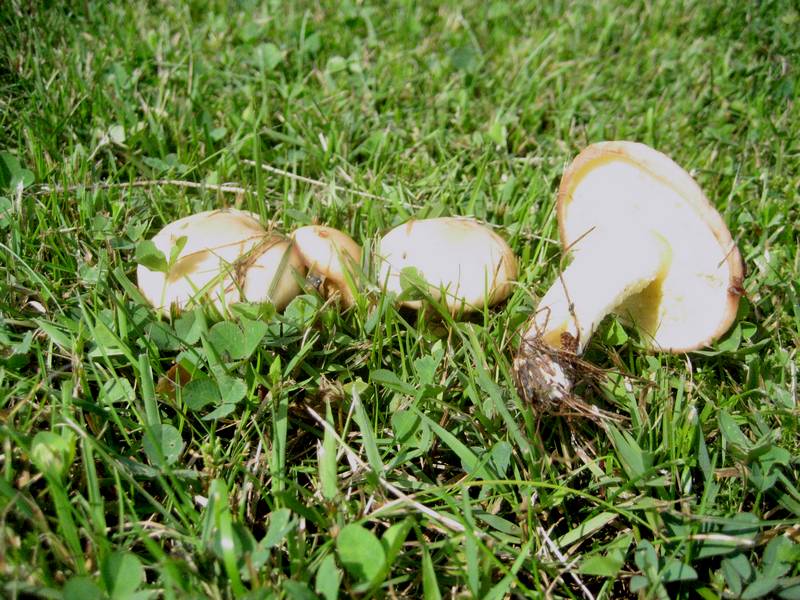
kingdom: Fungi
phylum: Basidiomycota
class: Agaricomycetes
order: Boletales
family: Suillaceae
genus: Suillus
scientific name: Suillus granulatus
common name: kornet slimrørhat
